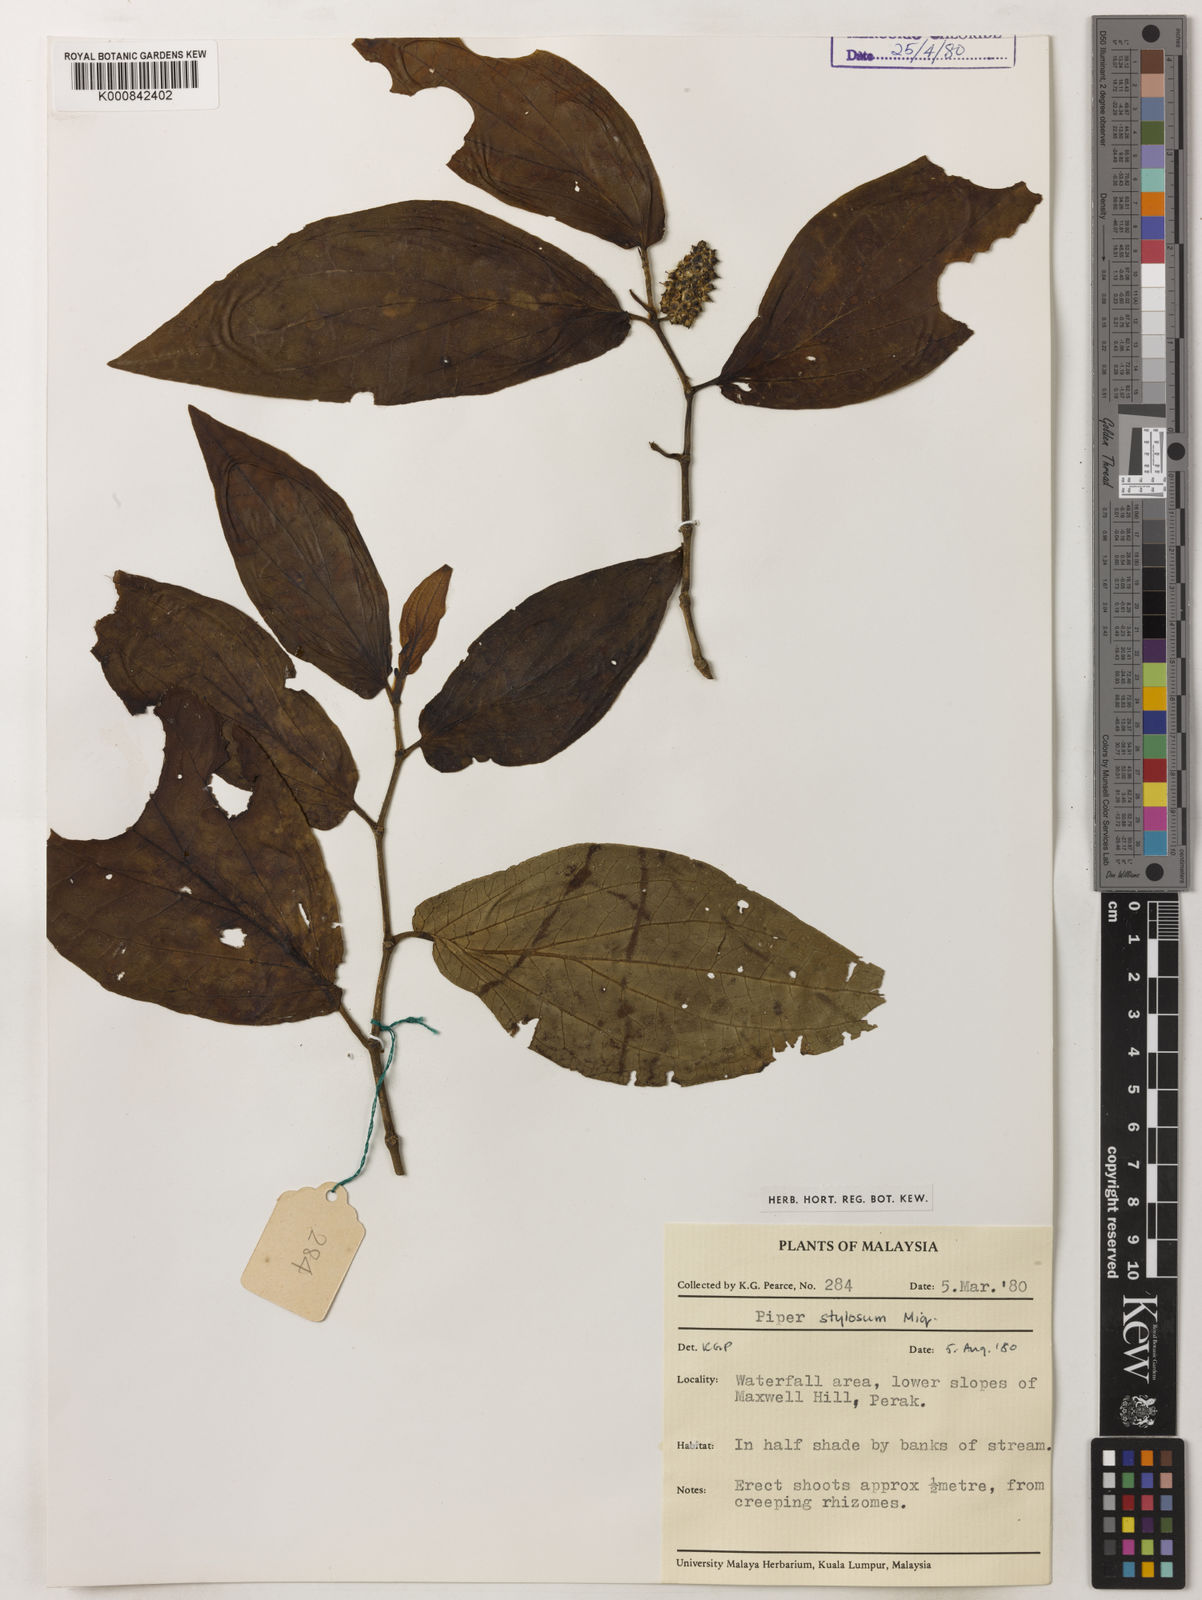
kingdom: Plantae
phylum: Tracheophyta
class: Magnoliopsida
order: Piperales
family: Piperaceae
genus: Piper
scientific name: Piper rostratum
